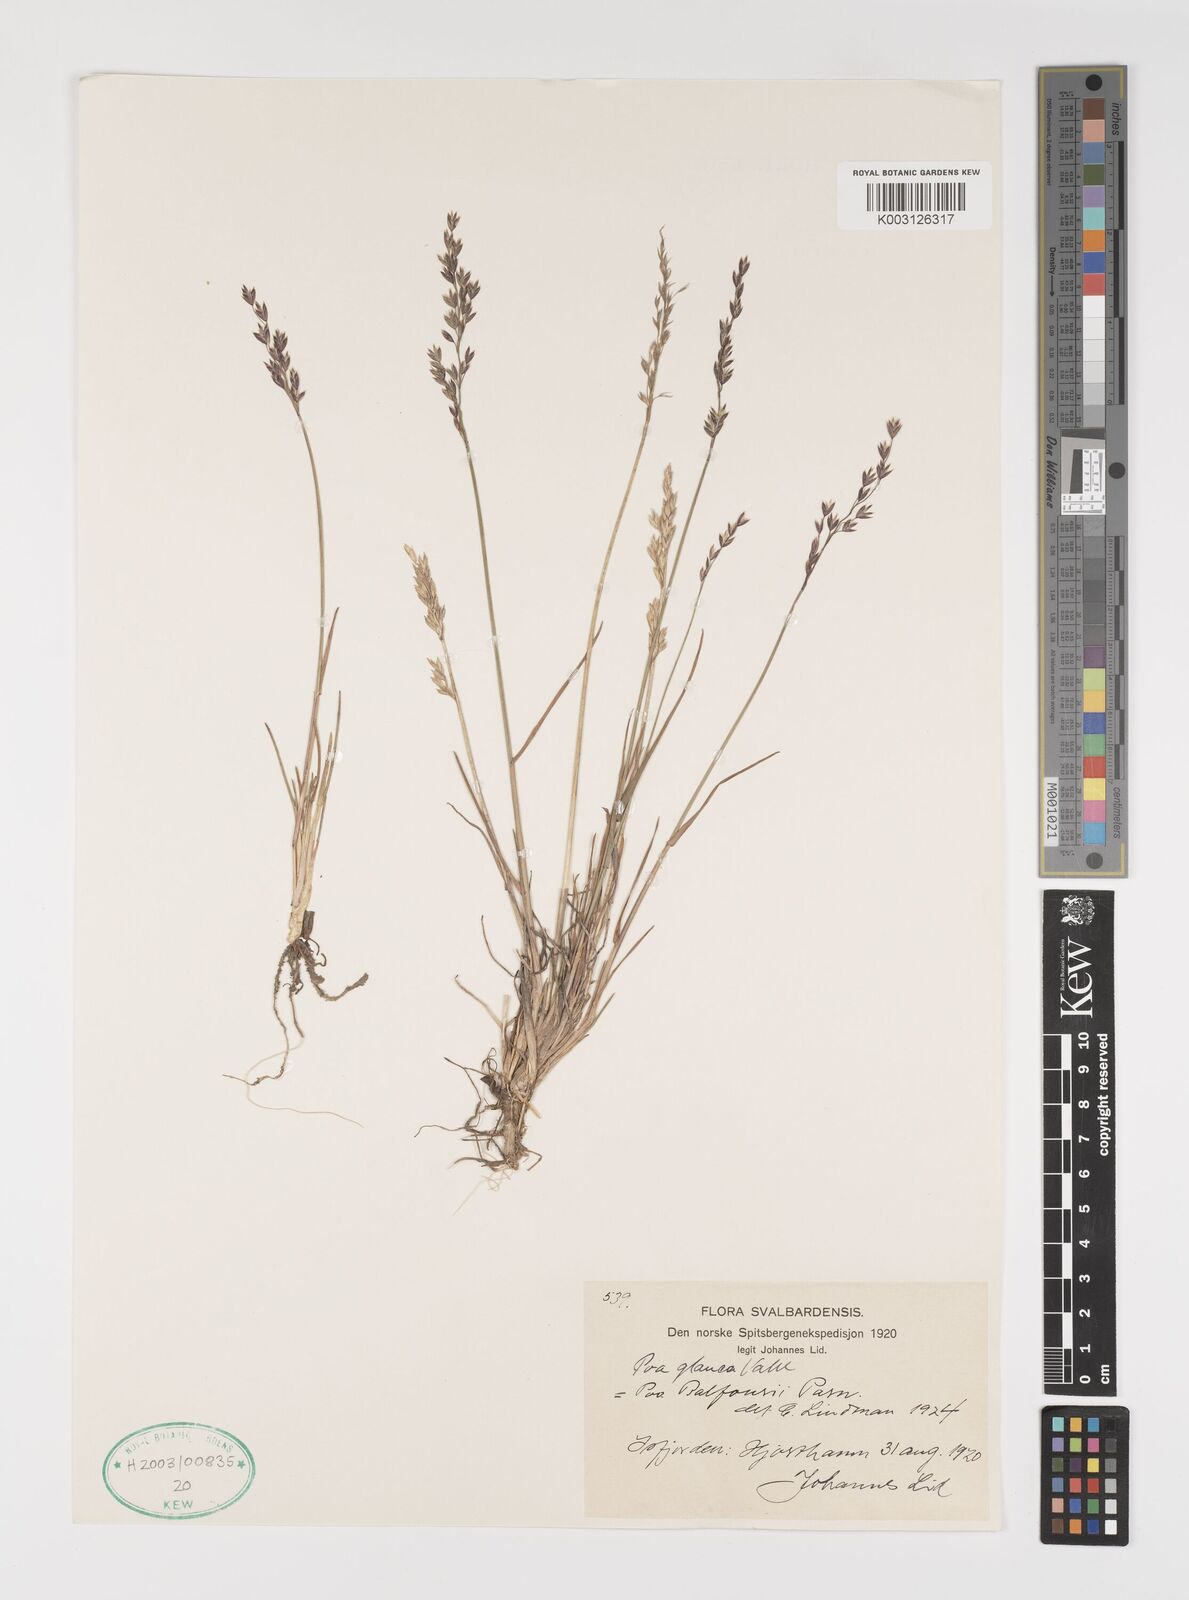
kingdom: Plantae
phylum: Tracheophyta
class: Liliopsida
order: Poales
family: Poaceae
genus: Poa
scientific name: Poa glauca
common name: Glaucous bluegrass
